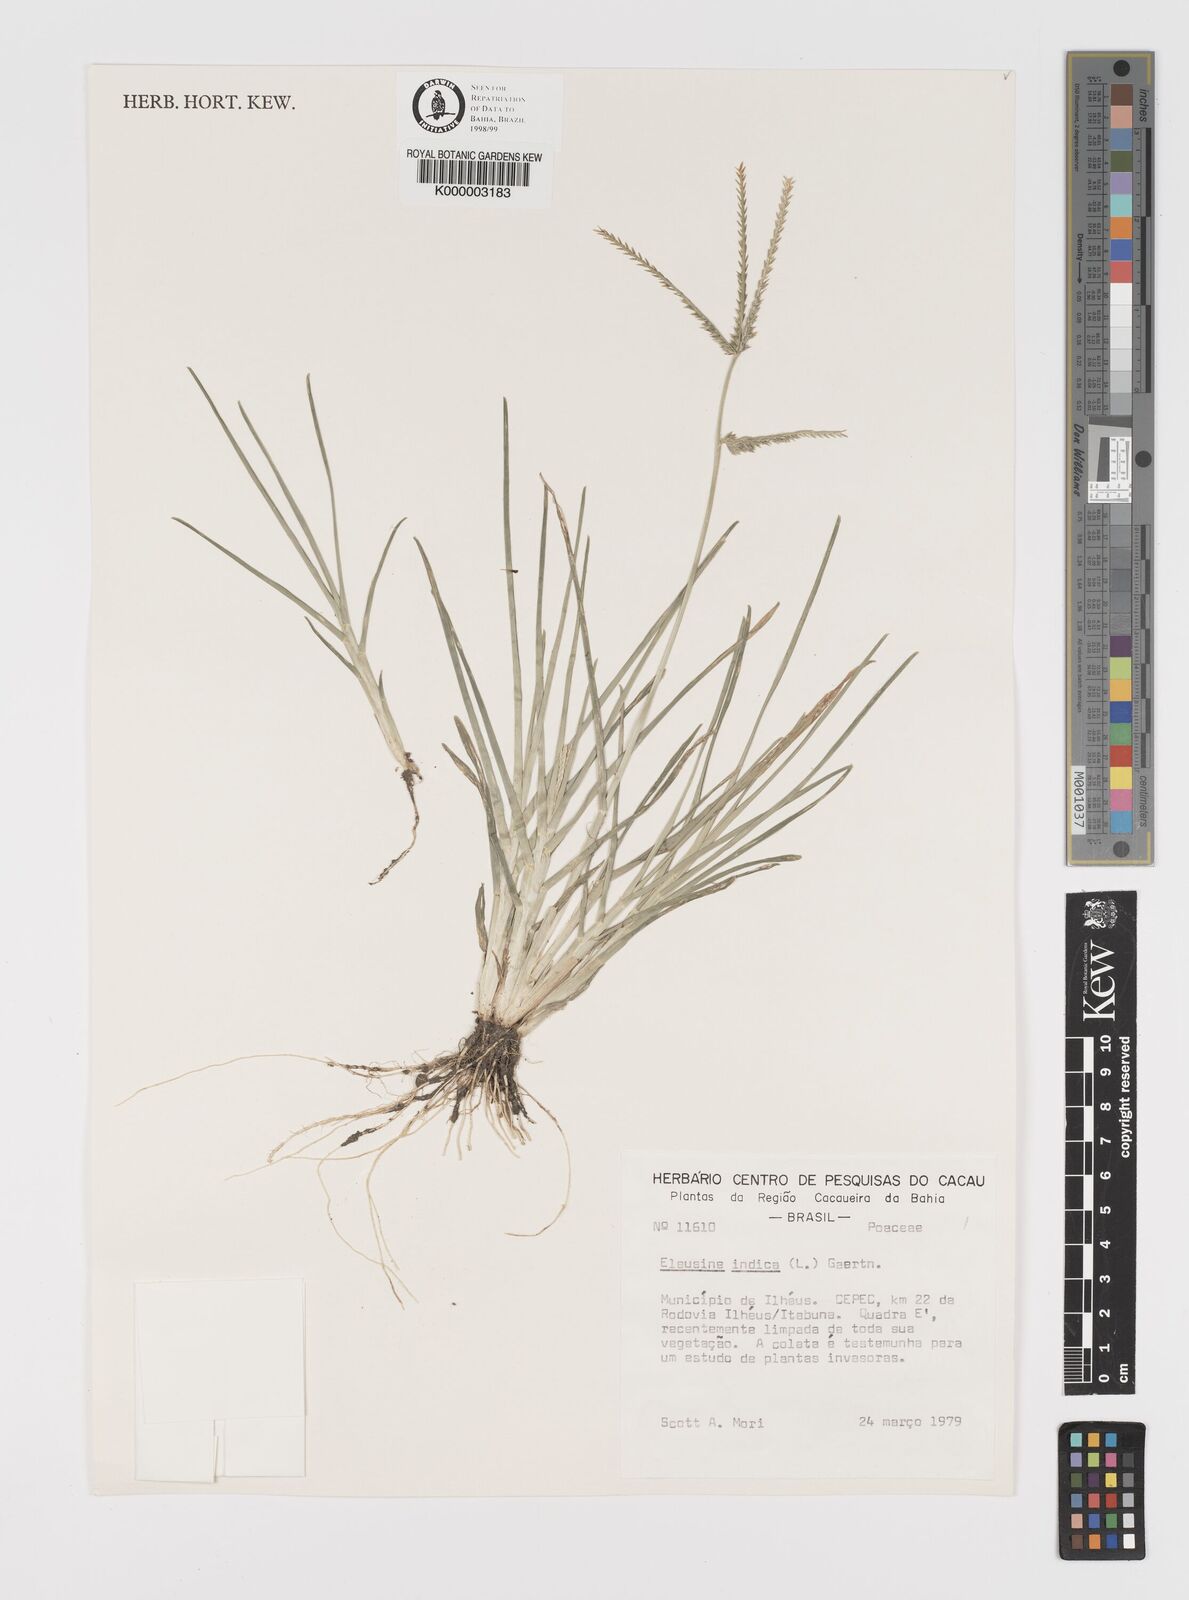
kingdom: Plantae
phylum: Tracheophyta
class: Liliopsida
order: Poales
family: Poaceae
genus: Eleusine
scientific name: Eleusine indica
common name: Yard-grass
